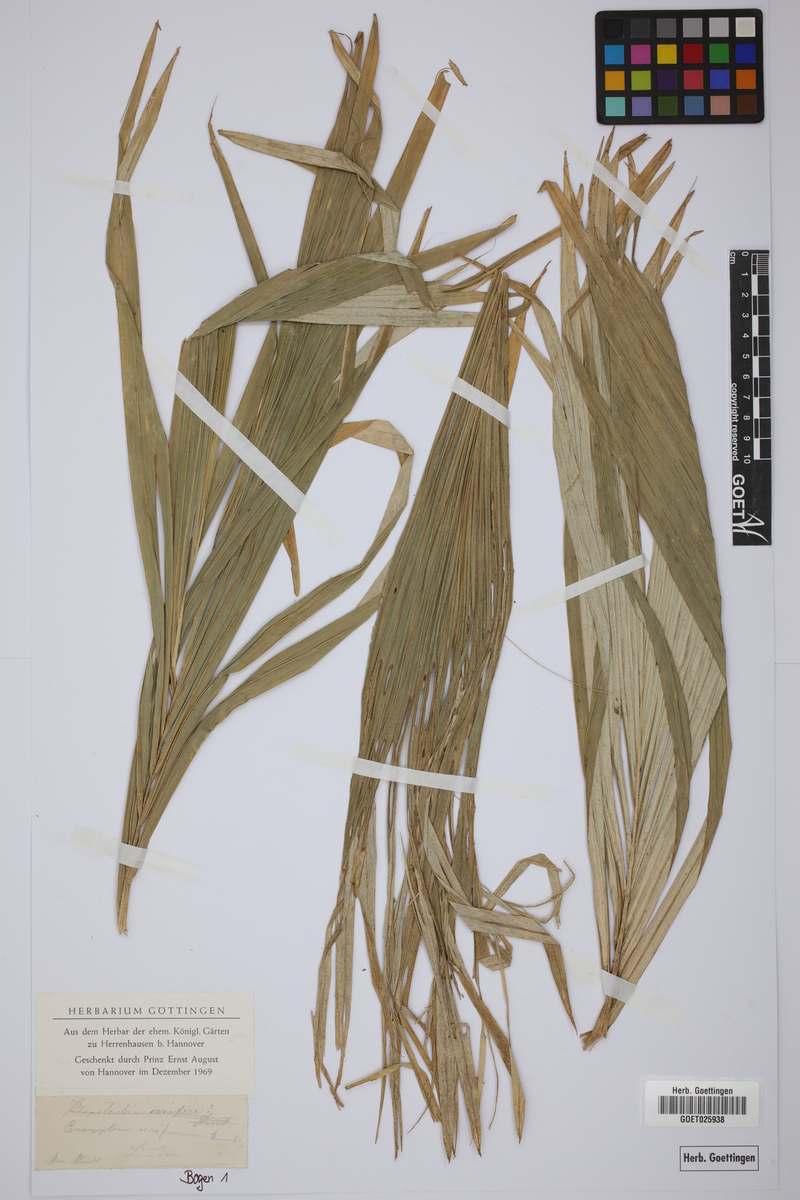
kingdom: Plantae
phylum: Tracheophyta
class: Liliopsida
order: Arecales
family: Arecaceae
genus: Ceroxylon
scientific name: Ceroxylon alpinum
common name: Wax palm
